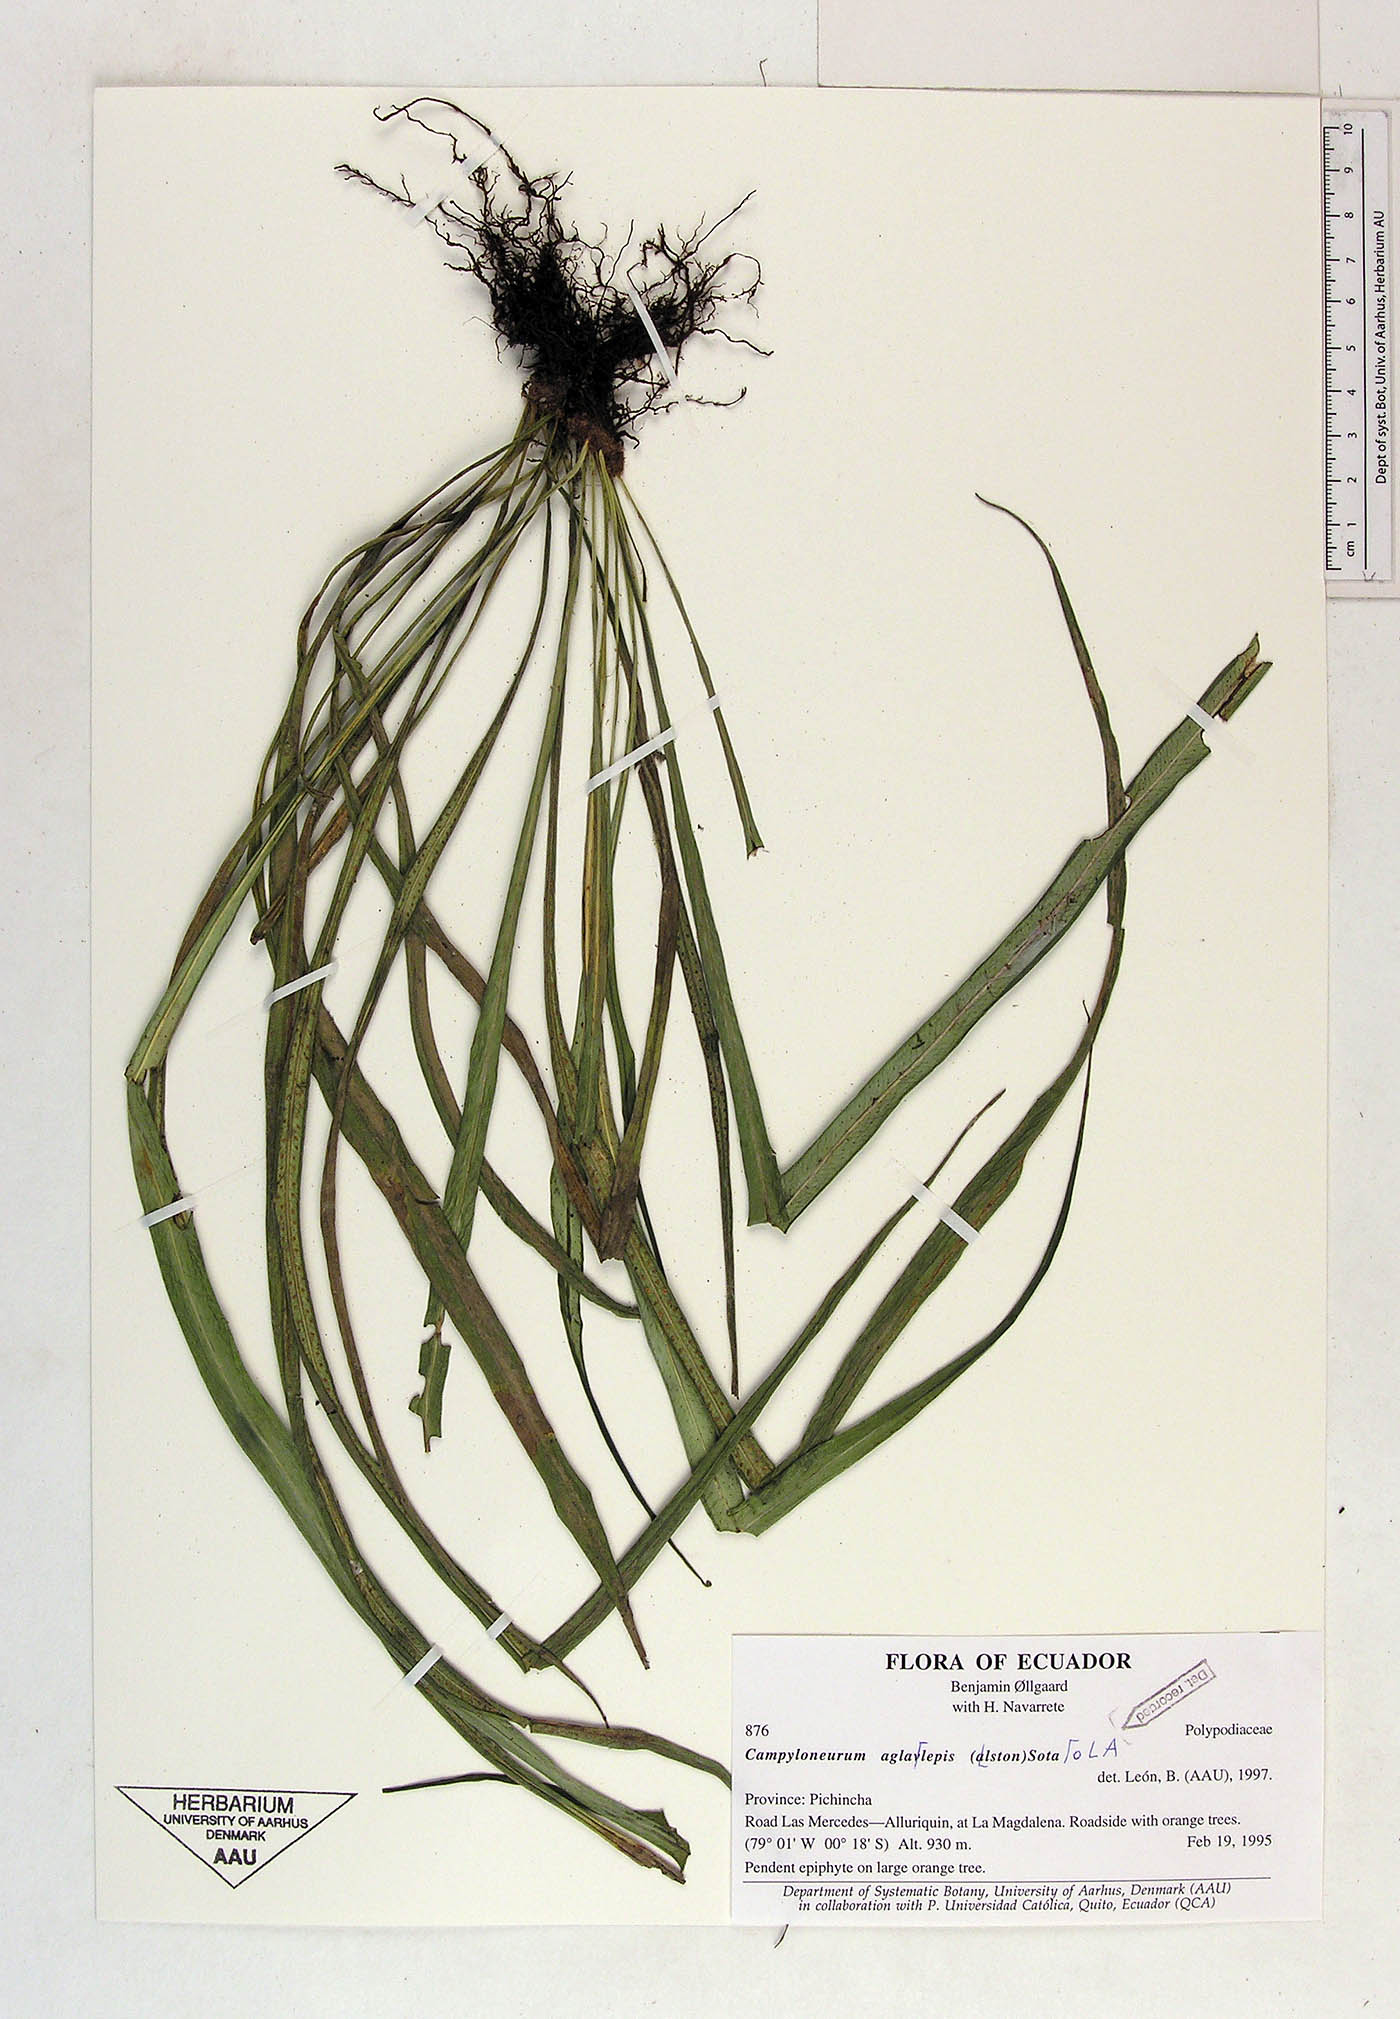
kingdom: Plantae
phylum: Tracheophyta
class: Polypodiopsida
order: Polypodiales
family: Polypodiaceae
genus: Campyloneurum
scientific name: Campyloneurum aglaolepis
